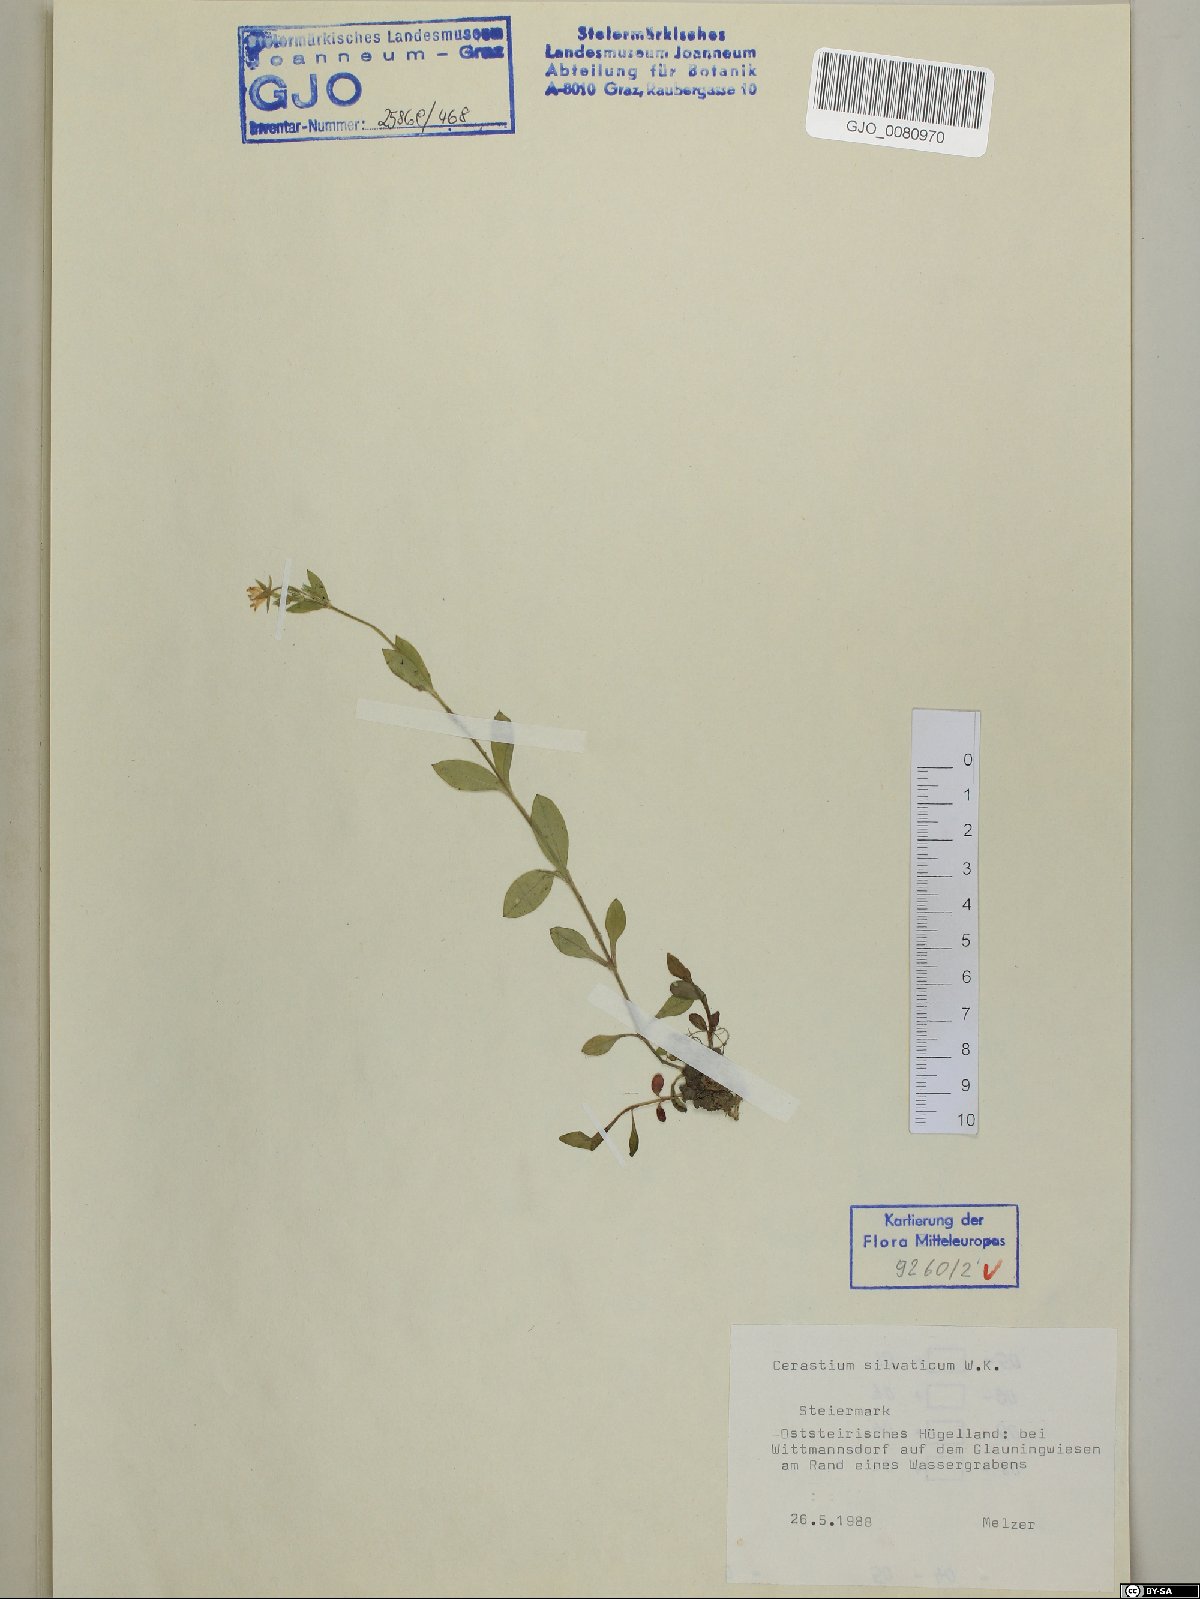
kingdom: Plantae
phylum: Tracheophyta
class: Magnoliopsida
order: Caryophyllales
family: Caryophyllaceae
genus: Cerastium
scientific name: Cerastium sylvaticum
